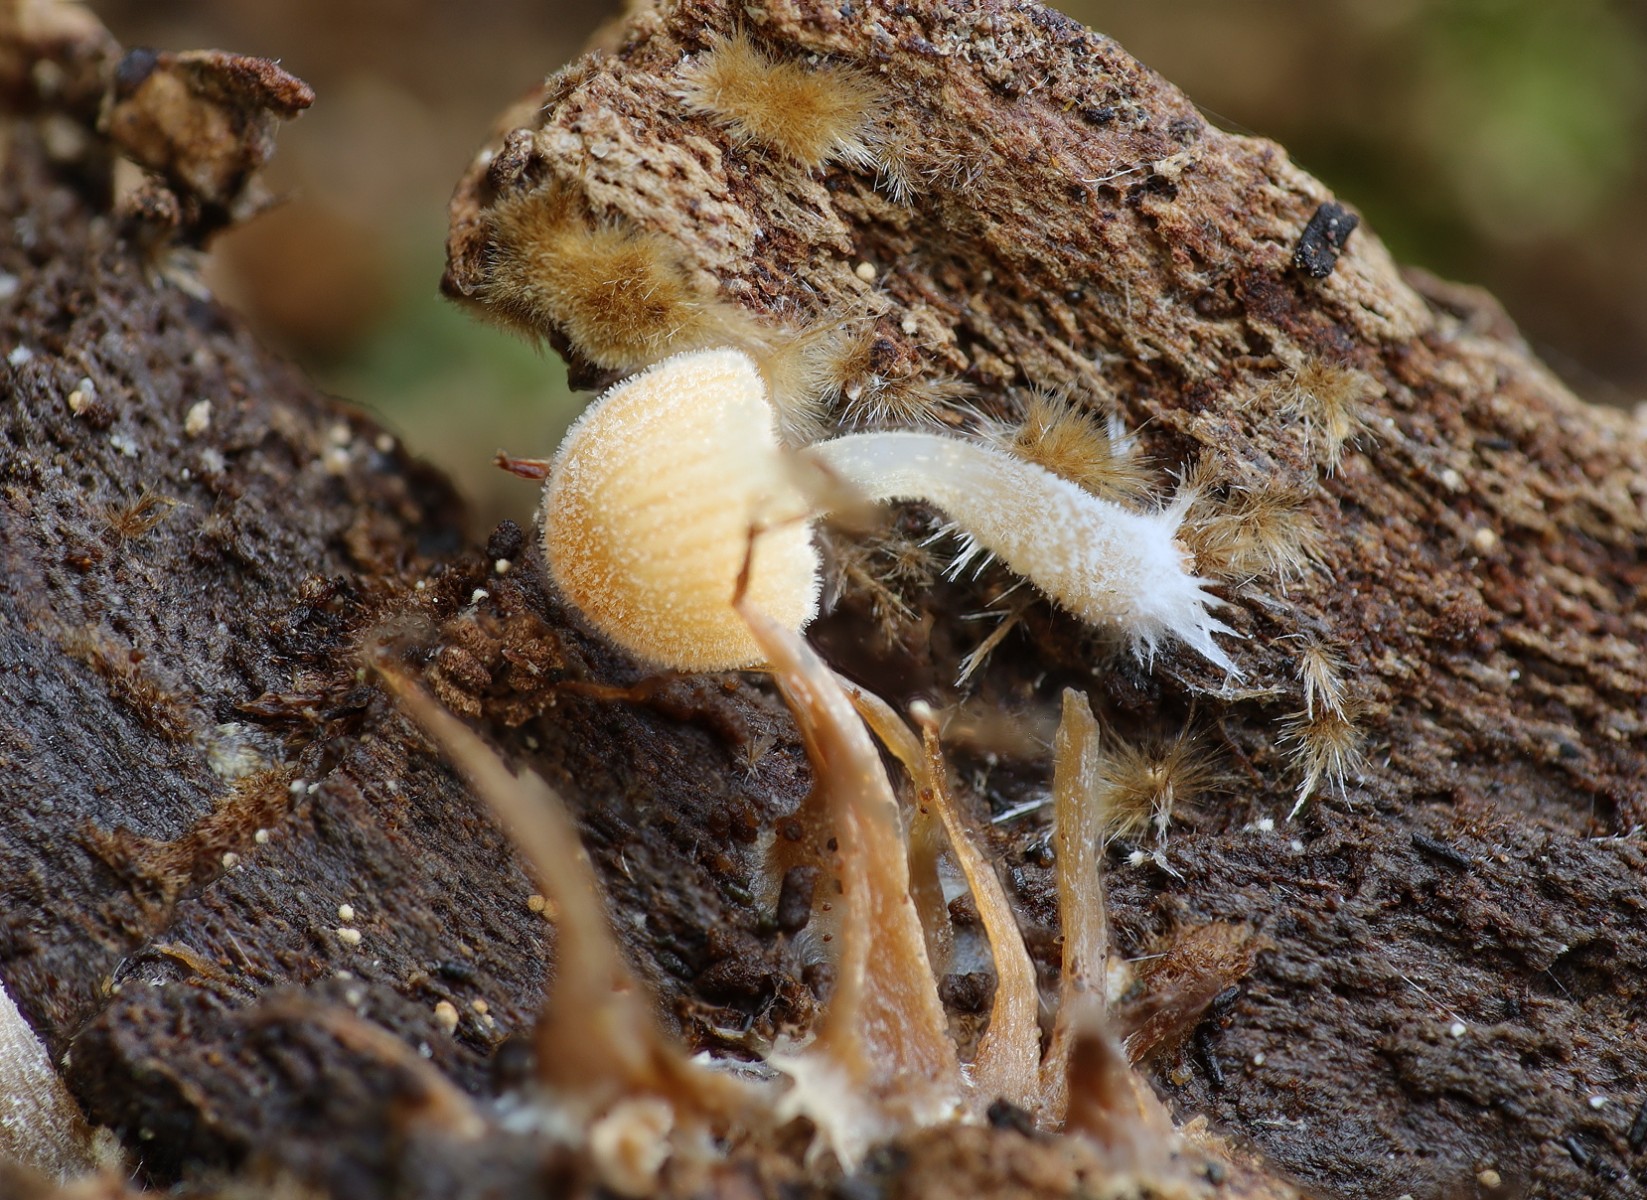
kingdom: Fungi
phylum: Basidiomycota
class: Agaricomycetes
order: Agaricales
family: Psathyrellaceae
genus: Coprinellus
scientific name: Coprinellus disseminatus
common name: bredsået blækhat
